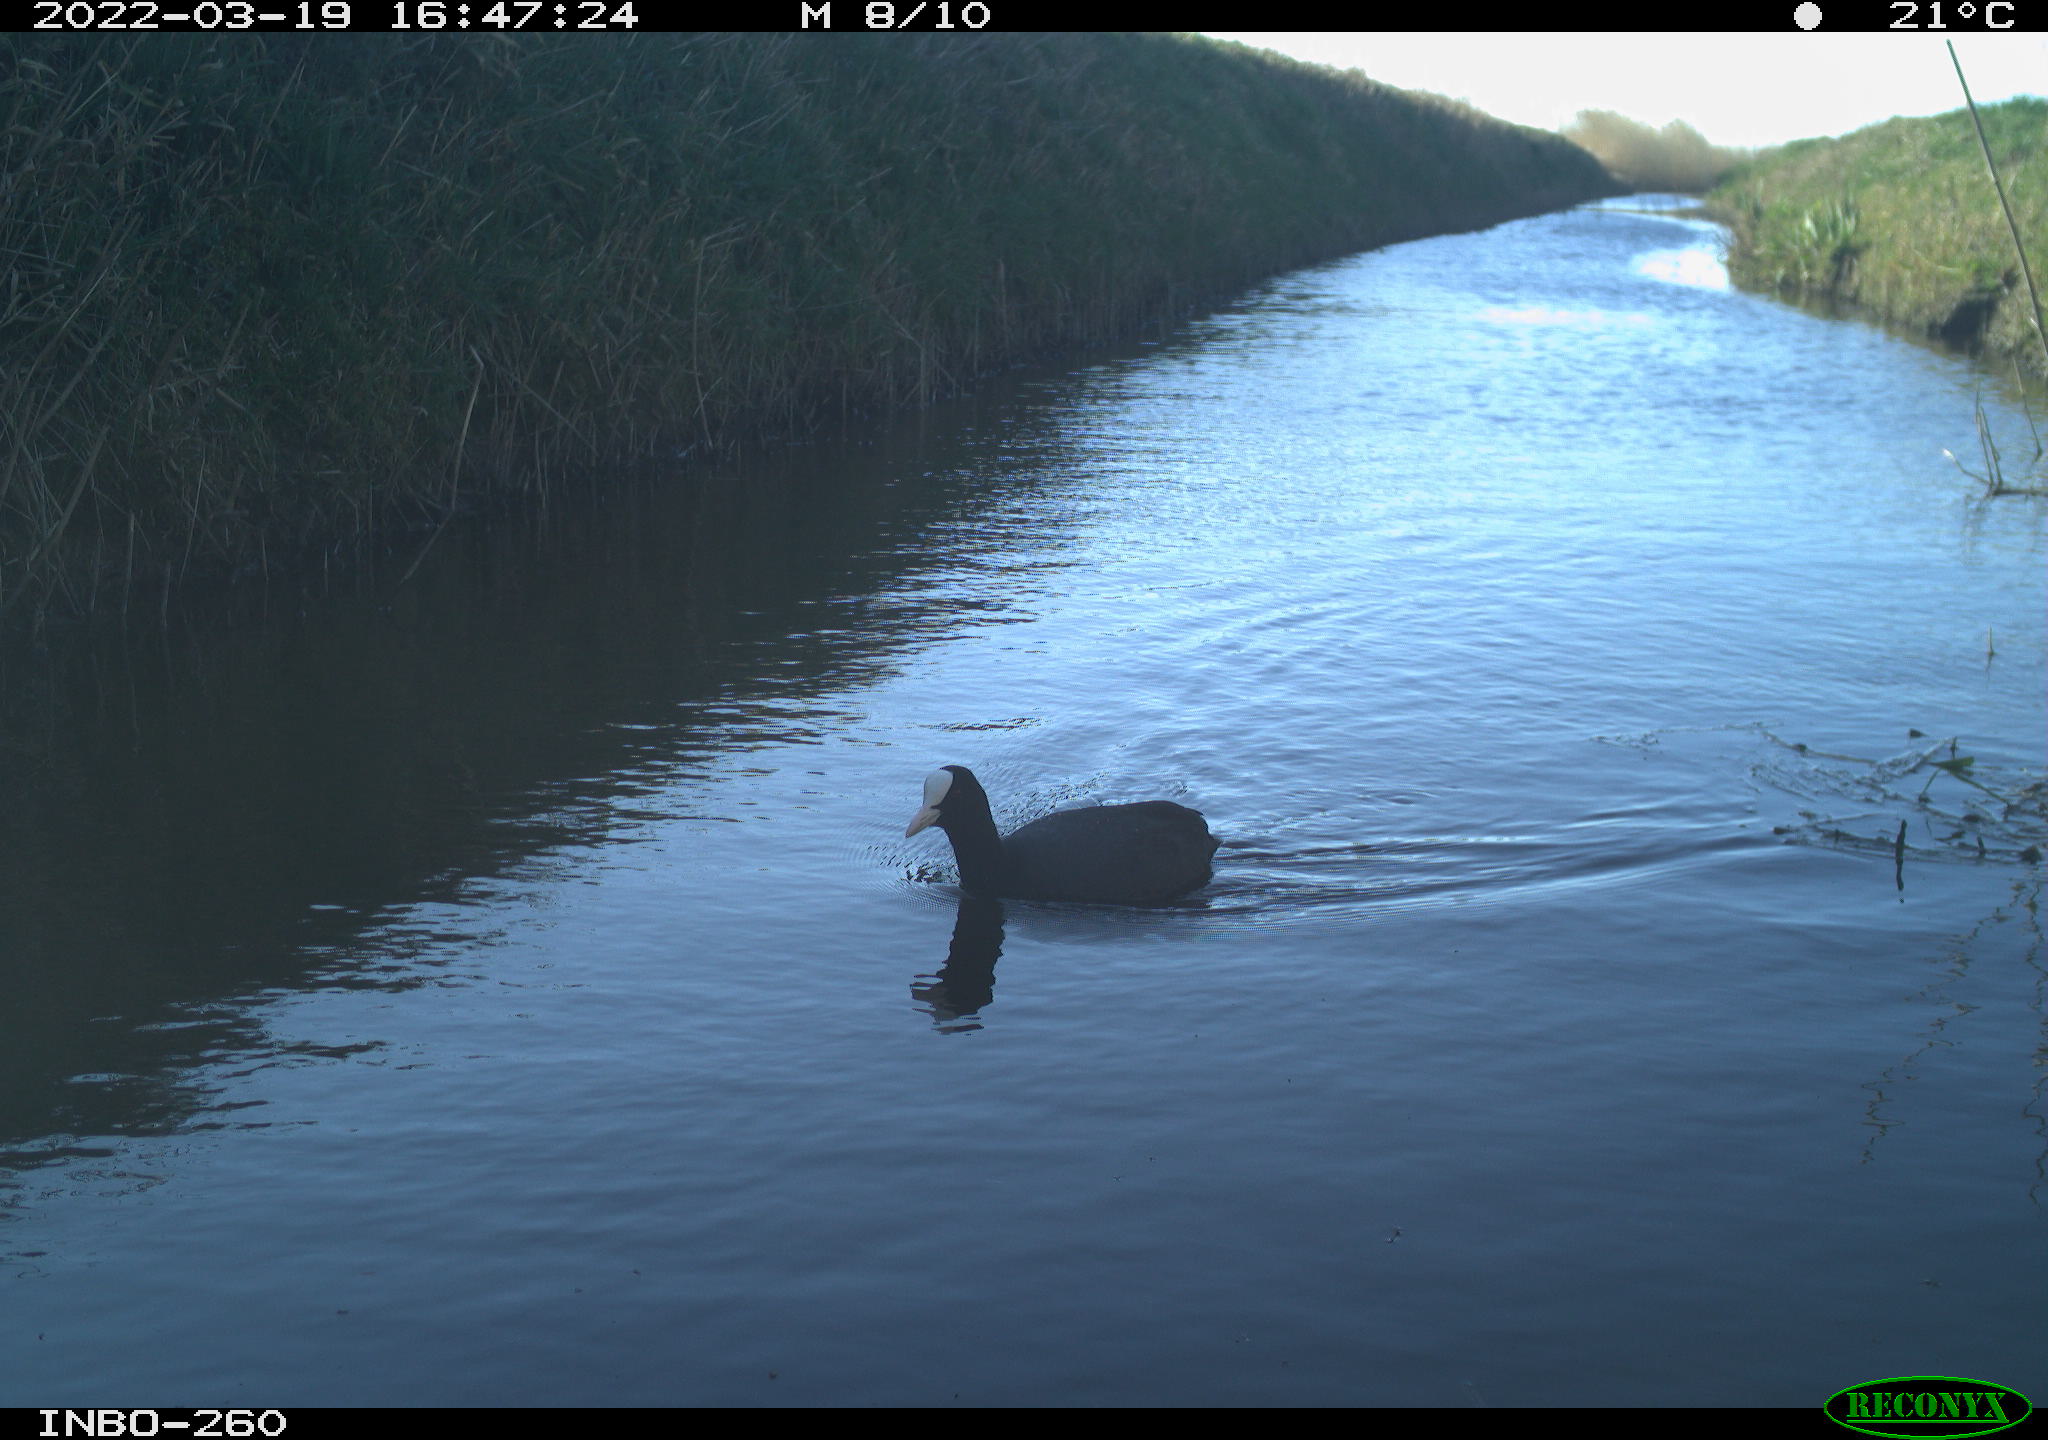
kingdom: Animalia
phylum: Chordata
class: Aves
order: Gruiformes
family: Rallidae
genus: Fulica
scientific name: Fulica atra
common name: Eurasian coot
